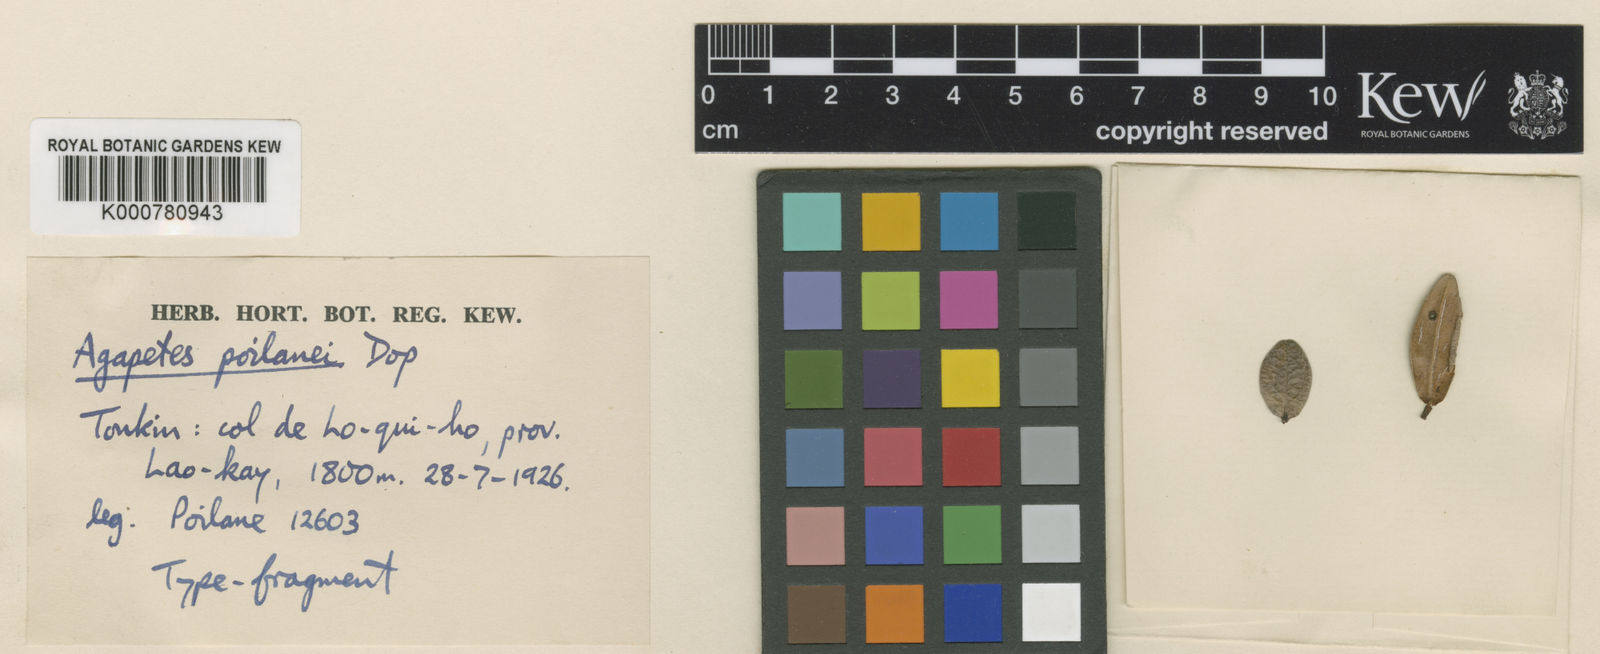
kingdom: Plantae
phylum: Tracheophyta
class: Magnoliopsida
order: Ericales
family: Ericaceae
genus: Vaccinium
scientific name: Vaccinium papillatum
